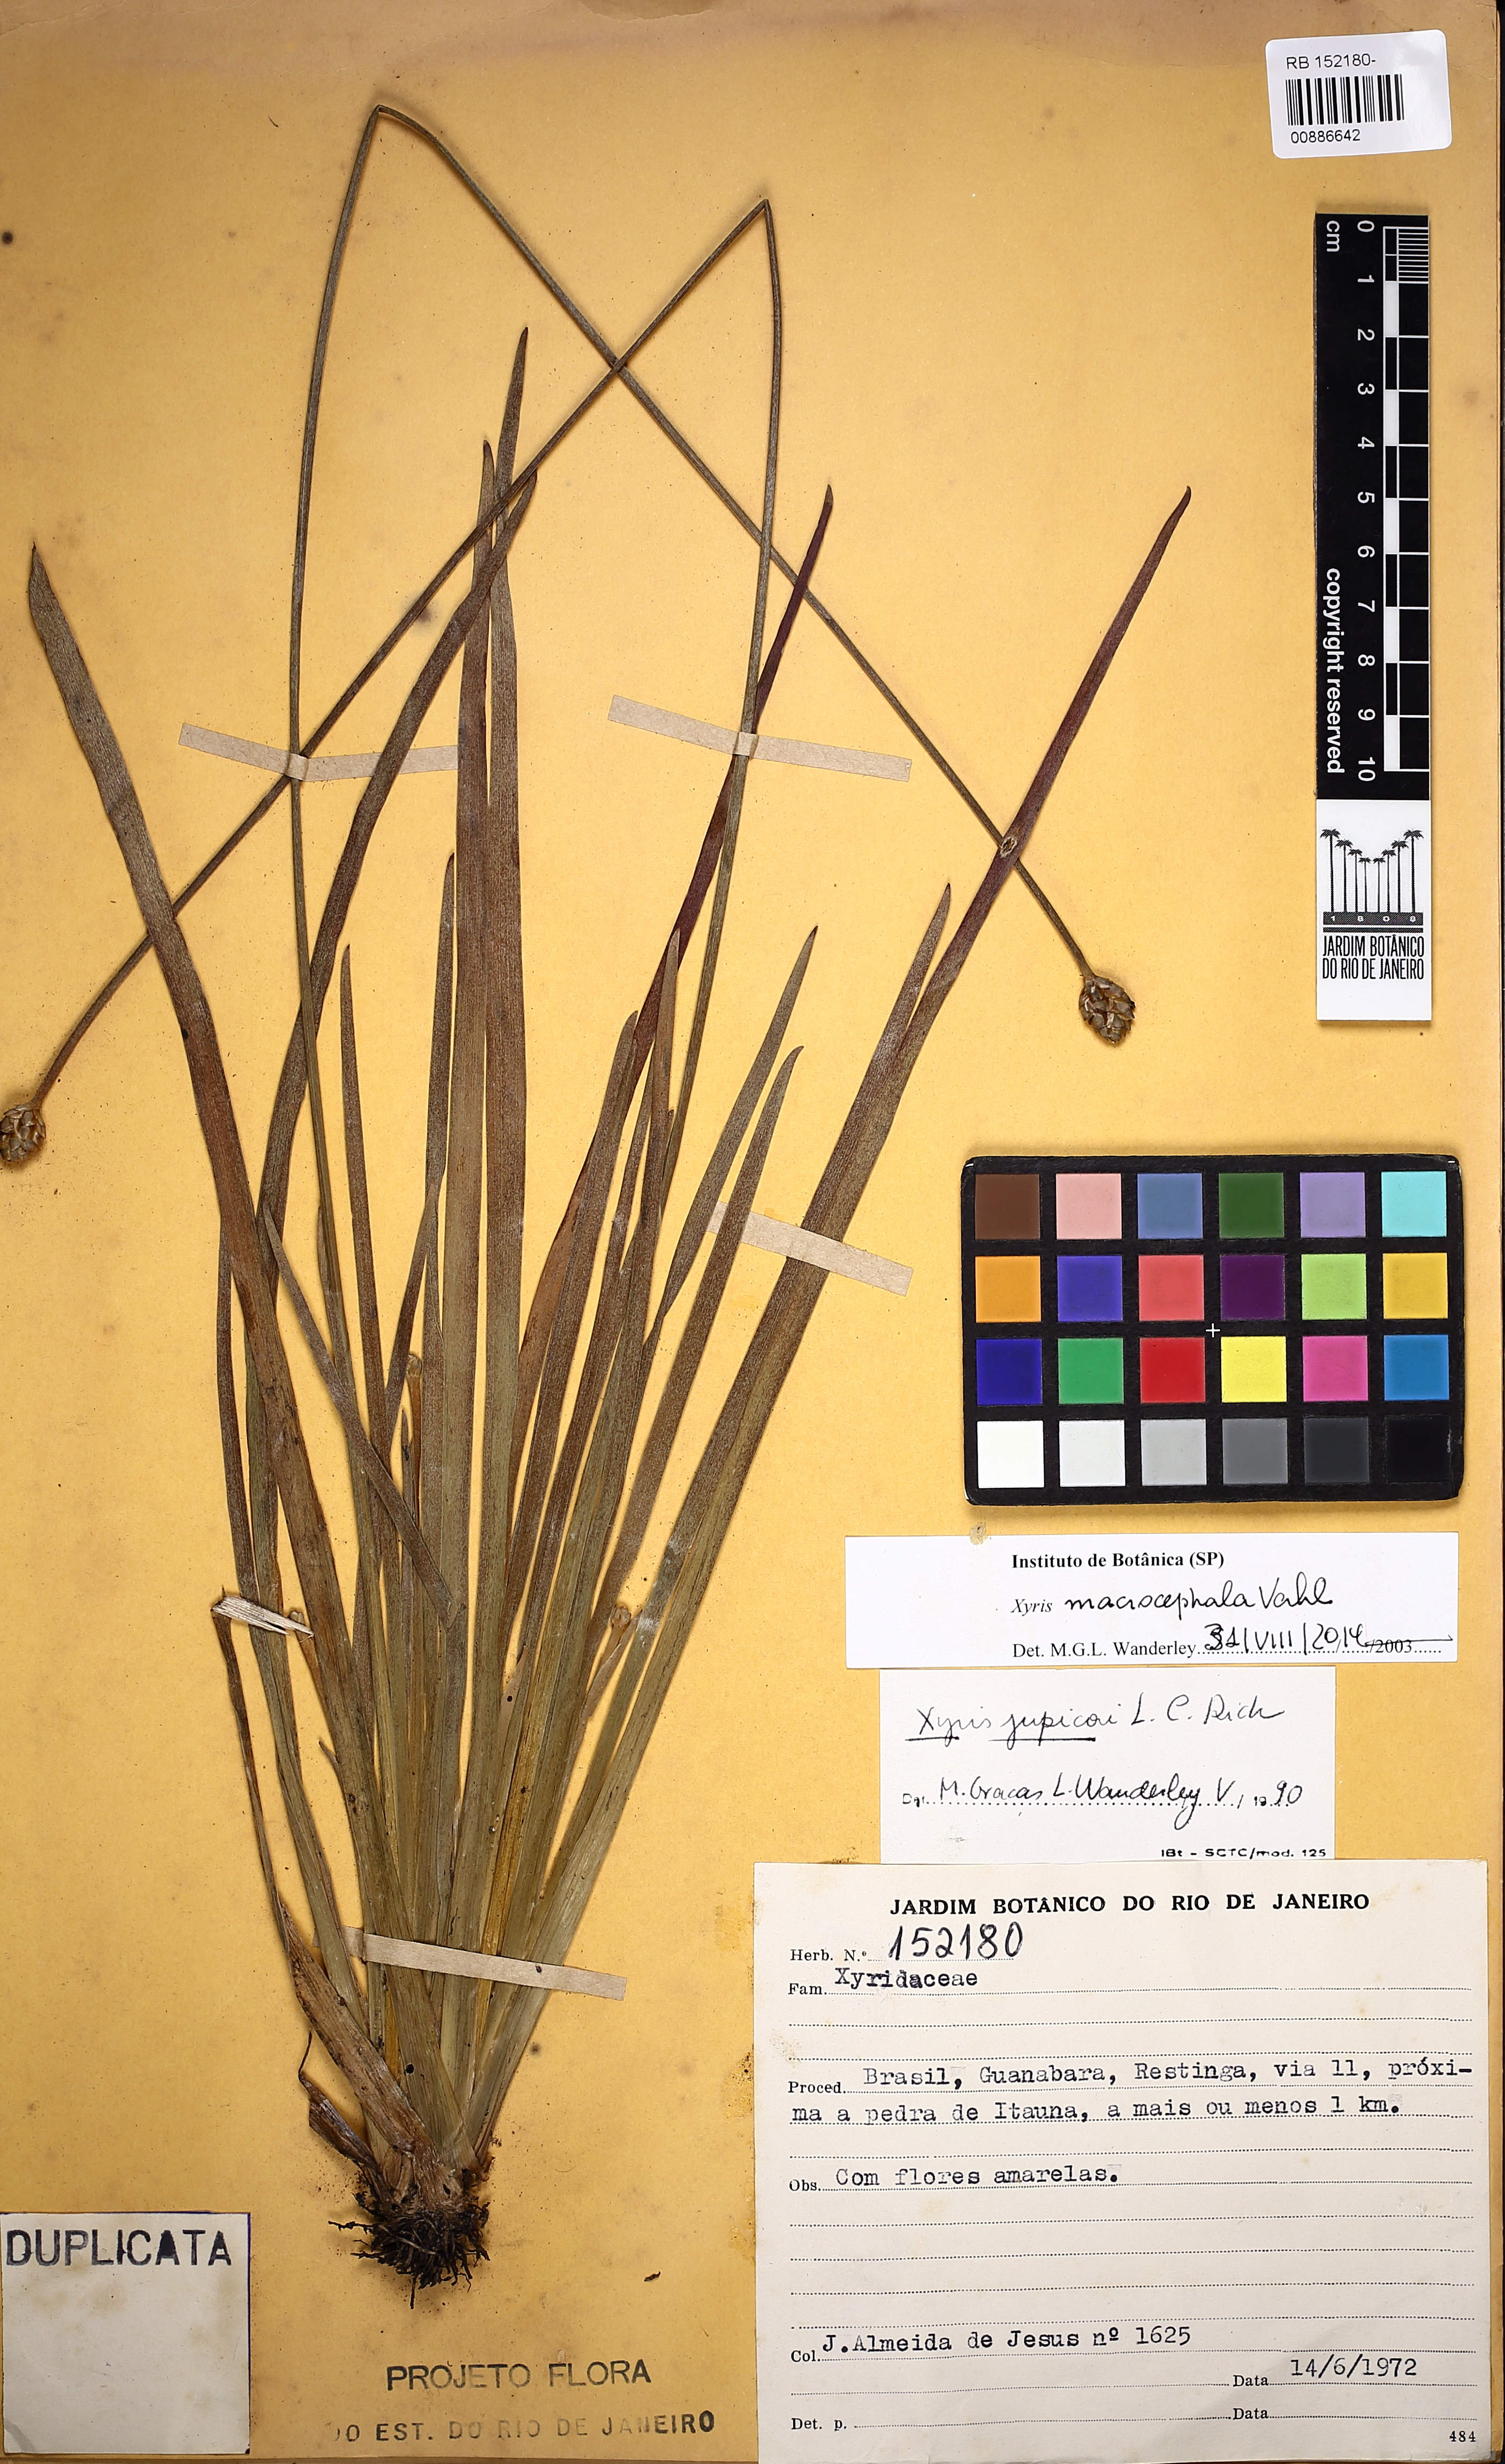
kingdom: Plantae
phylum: Tracheophyta
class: Liliopsida
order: Poales
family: Xyridaceae
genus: Xyris
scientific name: Xyris jupicai
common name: Richard's yelloweyed grass
